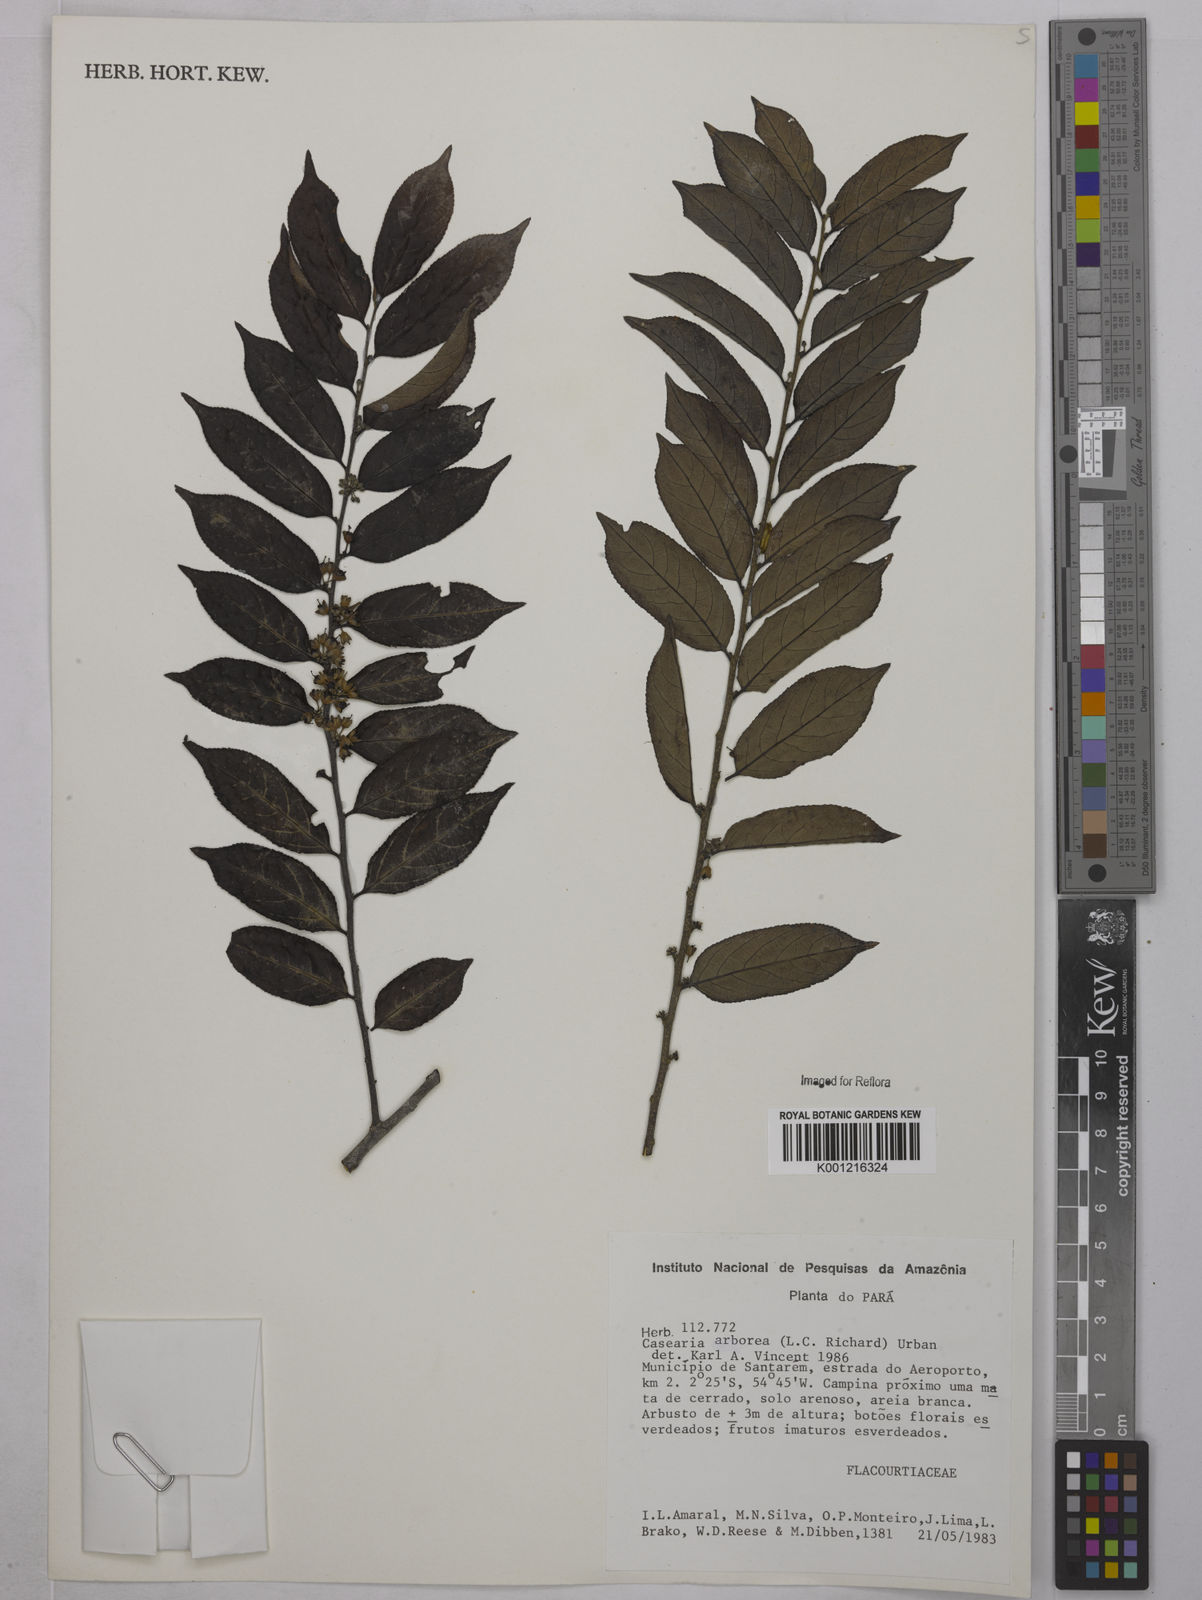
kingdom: Plantae
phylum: Tracheophyta
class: Magnoliopsida
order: Malpighiales
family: Salicaceae
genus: Casearia
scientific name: Casearia arborea
